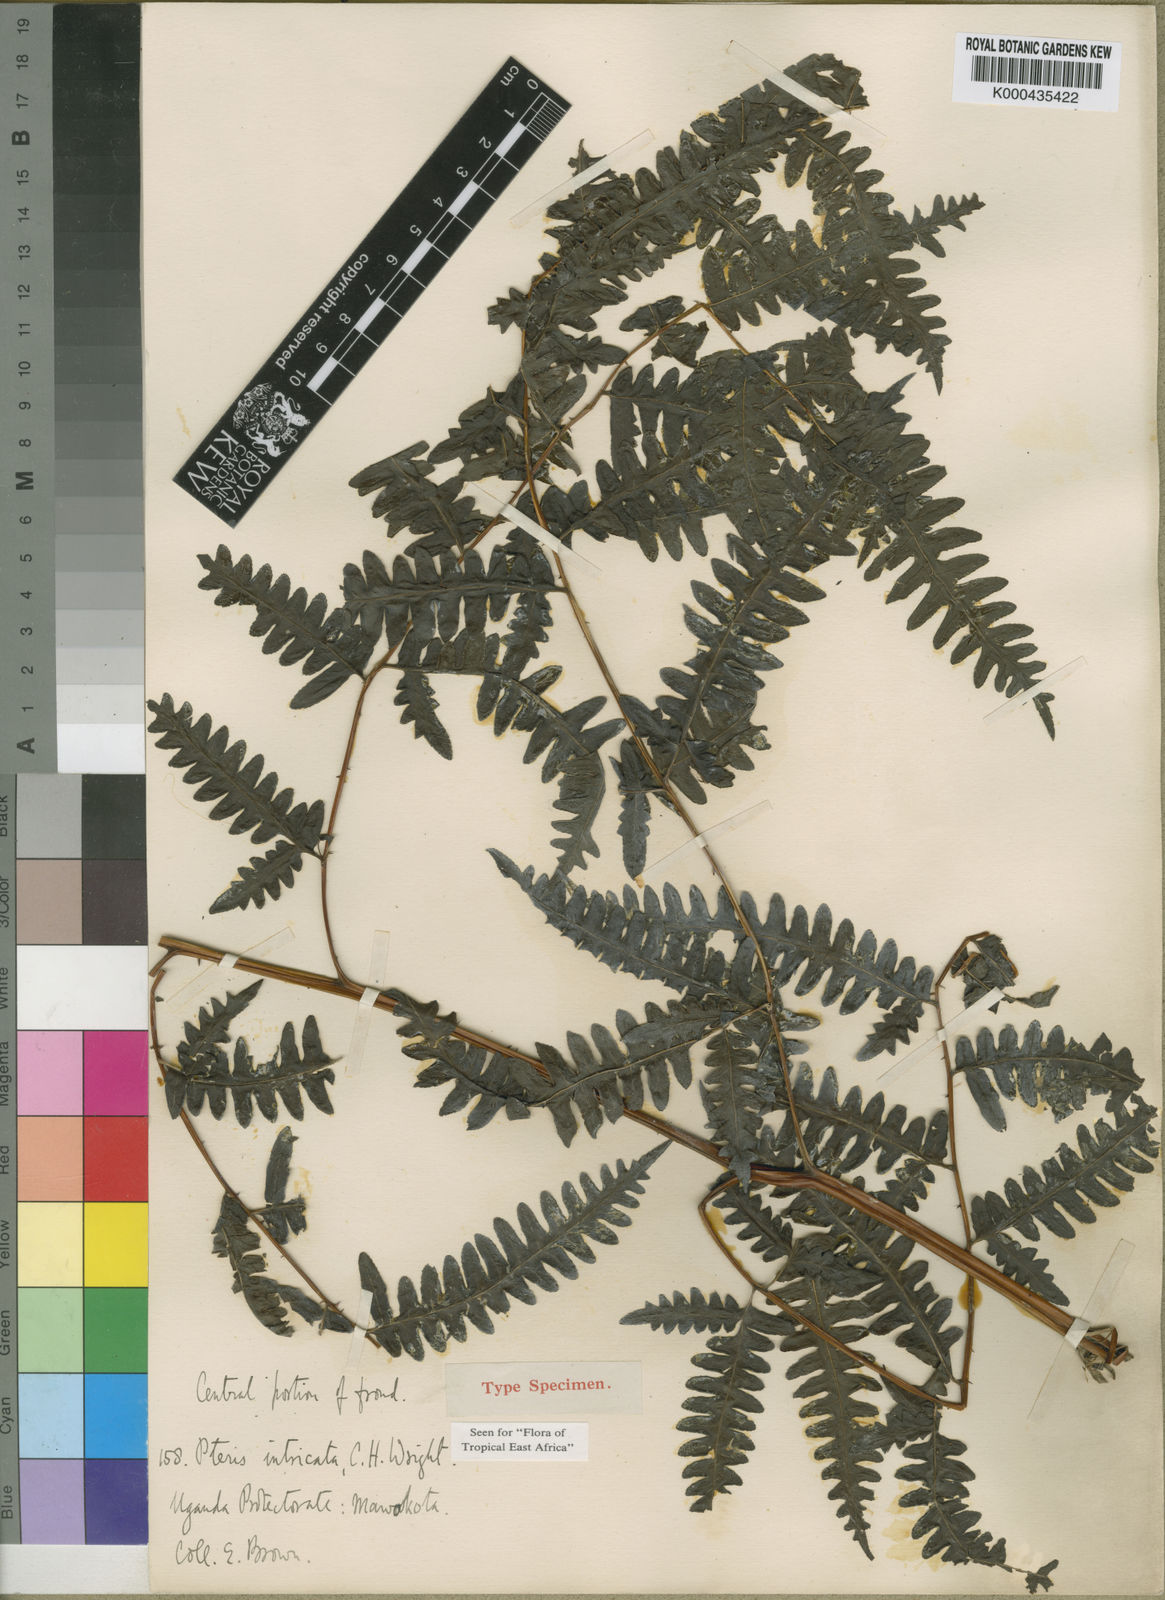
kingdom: Plantae
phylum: Tracheophyta
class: Polypodiopsida
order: Polypodiales
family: Pteridaceae
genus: Pteris
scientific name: Pteris intricata
